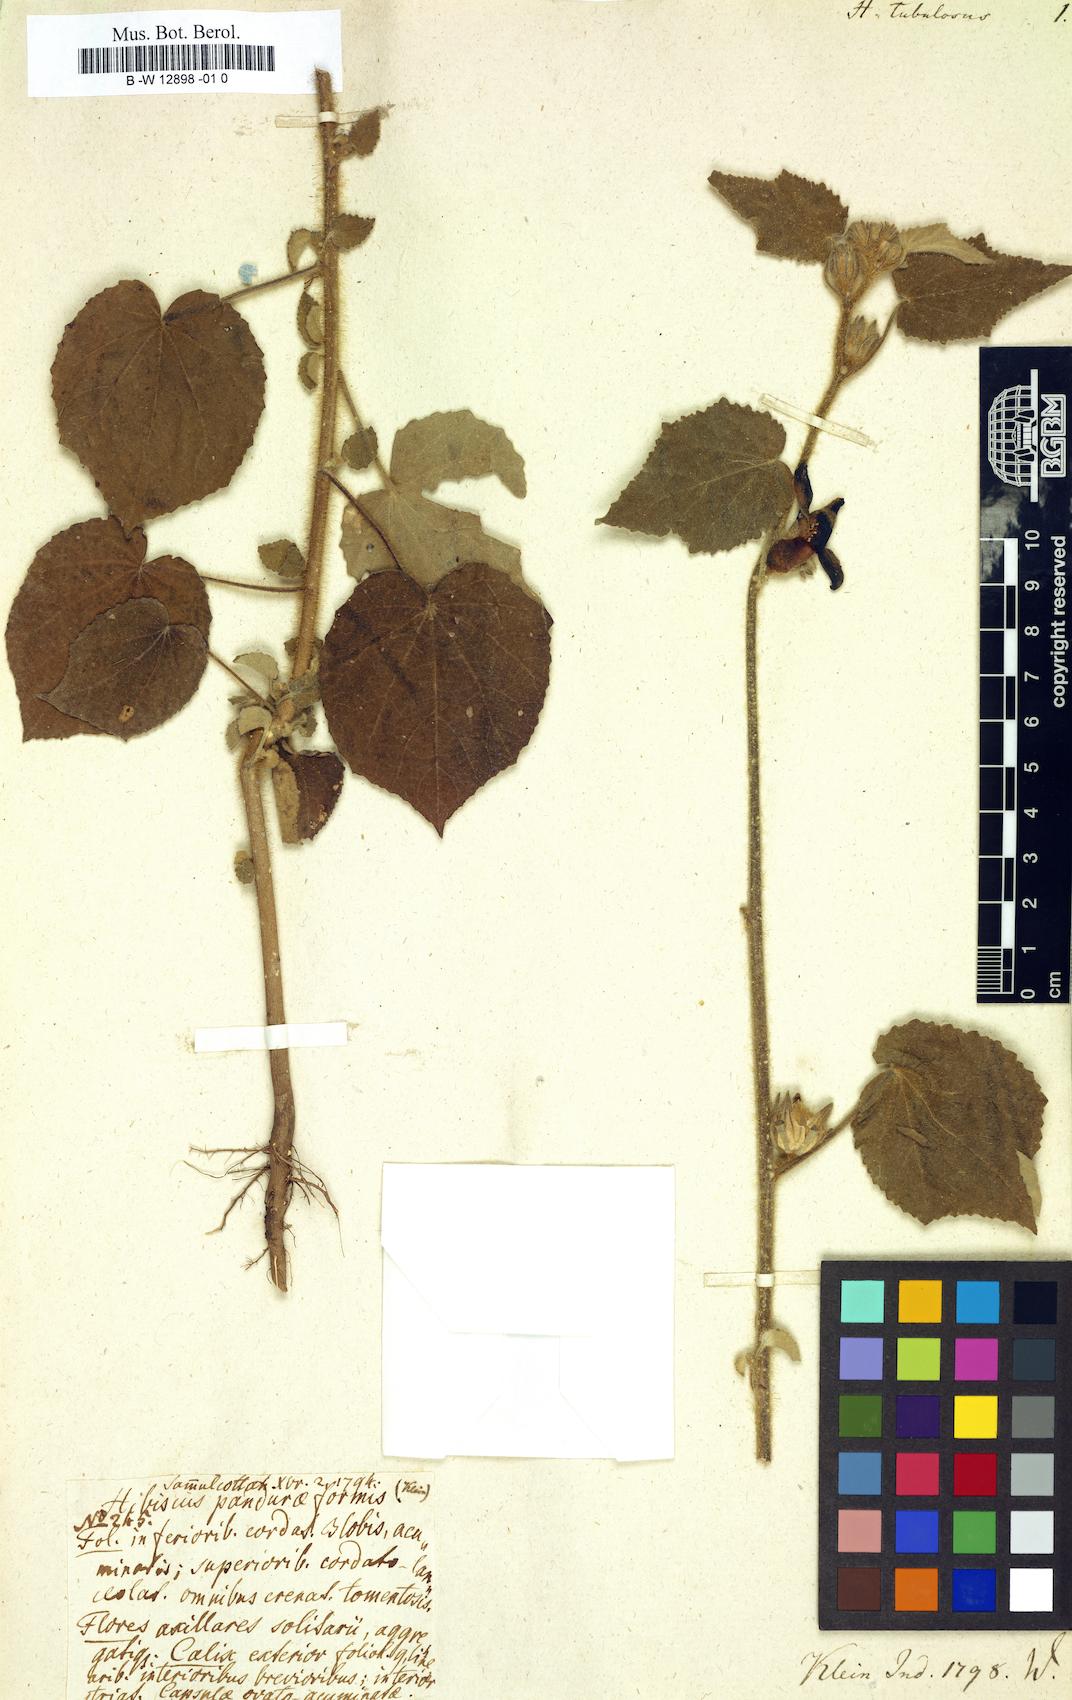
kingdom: Plantae
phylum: Tracheophyta
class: Magnoliopsida
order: Malvales
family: Malvaceae
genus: Hibiscus
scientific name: Hibiscus panduriformis
